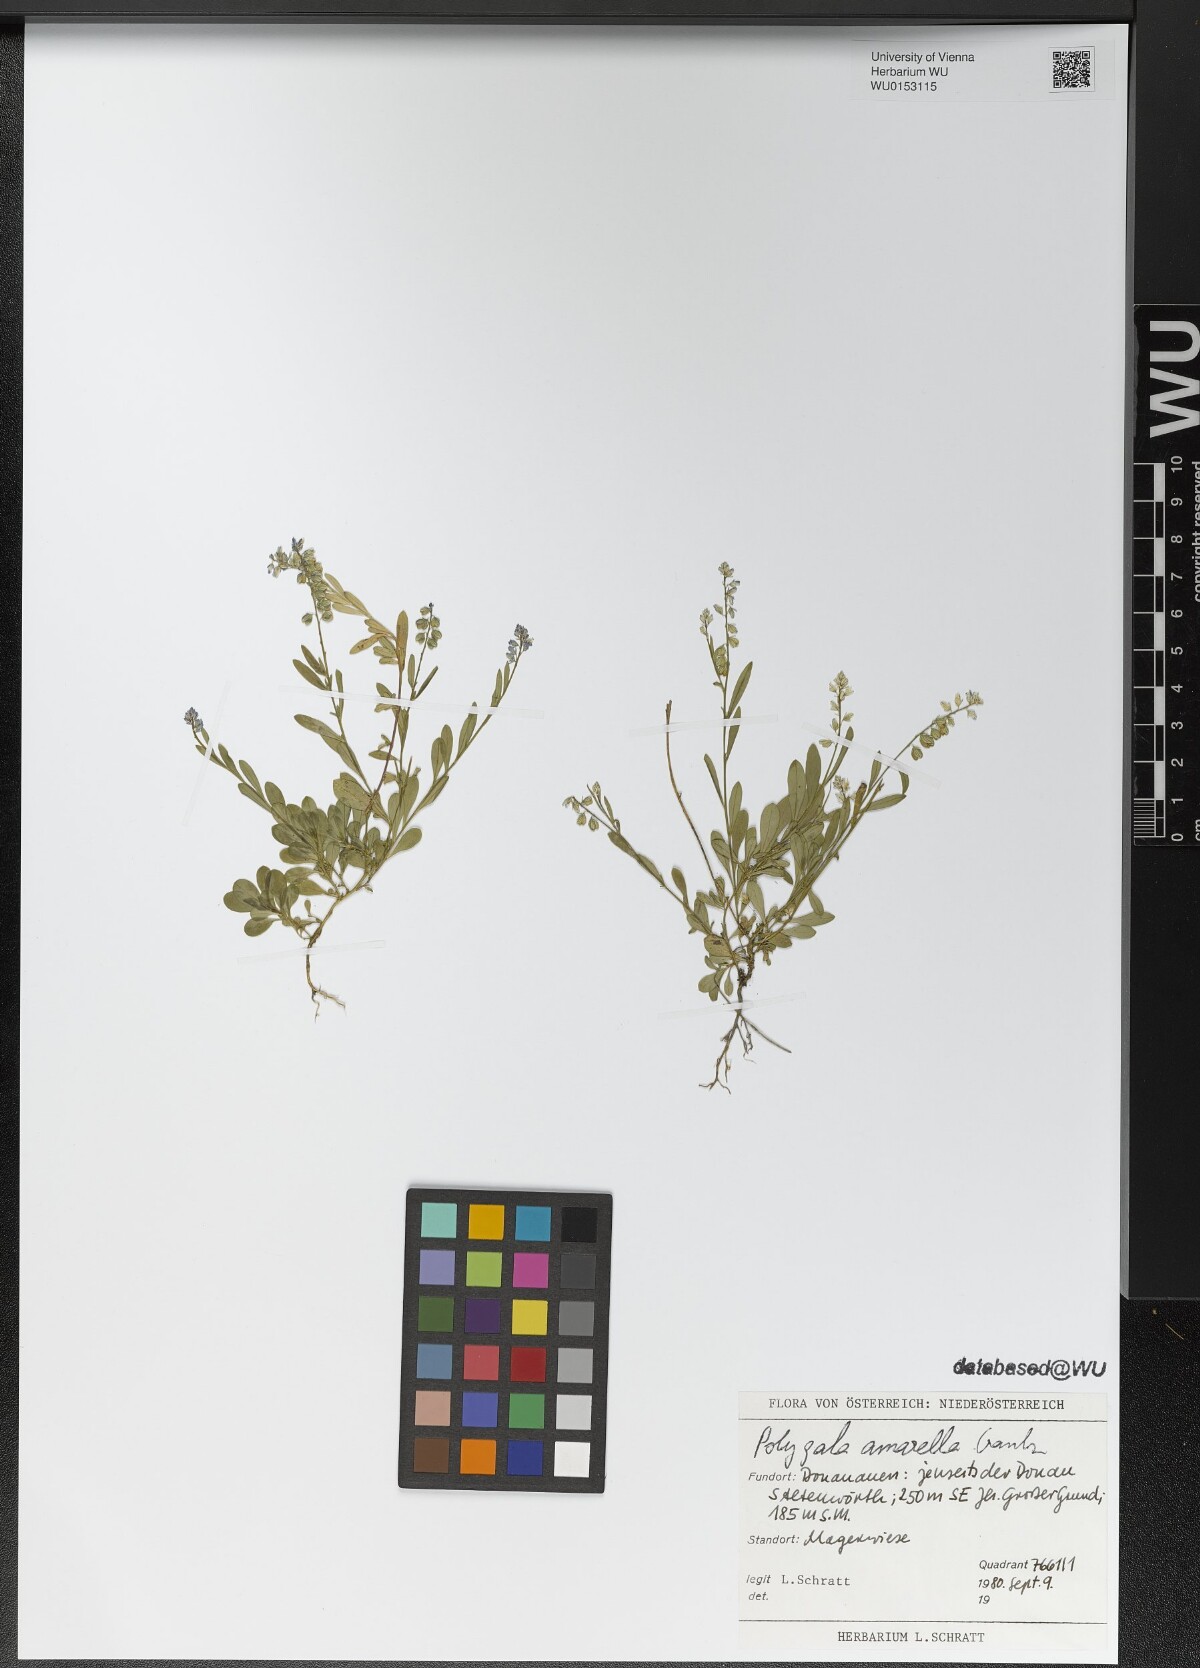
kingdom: Plantae
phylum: Tracheophyta
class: Magnoliopsida
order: Fabales
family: Polygalaceae
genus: Polygala
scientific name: Polygala amarella
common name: Dwarf milkwort
